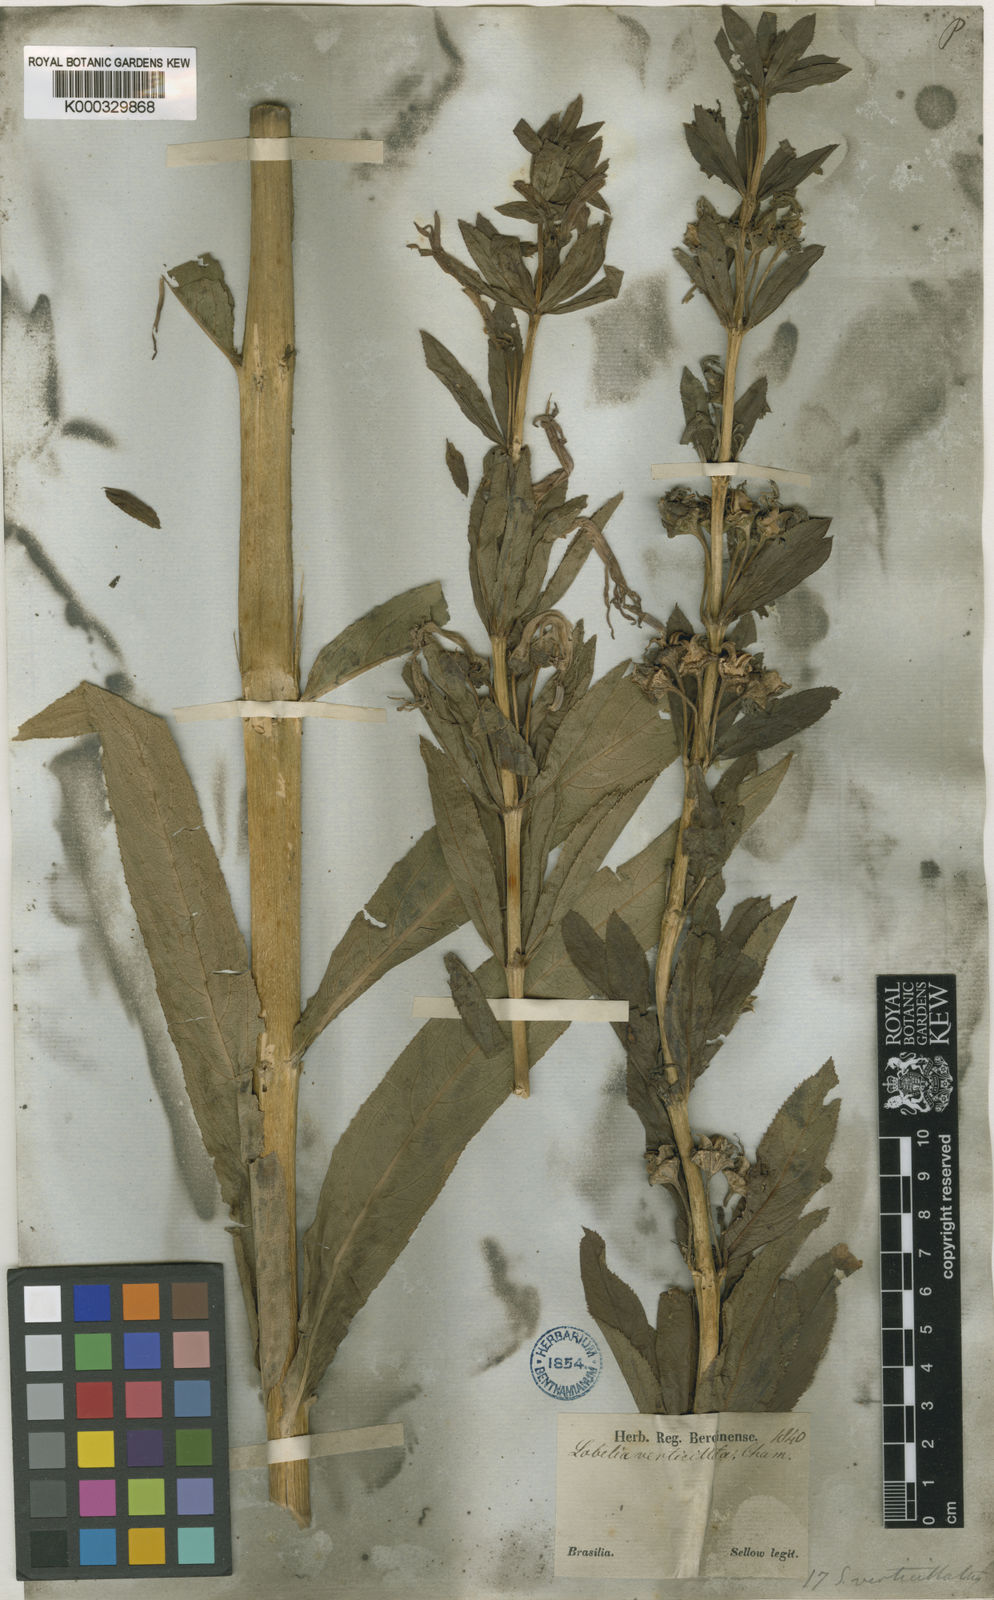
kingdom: Plantae
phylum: Tracheophyta
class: Magnoliopsida
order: Asterales
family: Campanulaceae
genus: Siphocampylus
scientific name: Siphocampylus verticillatus
